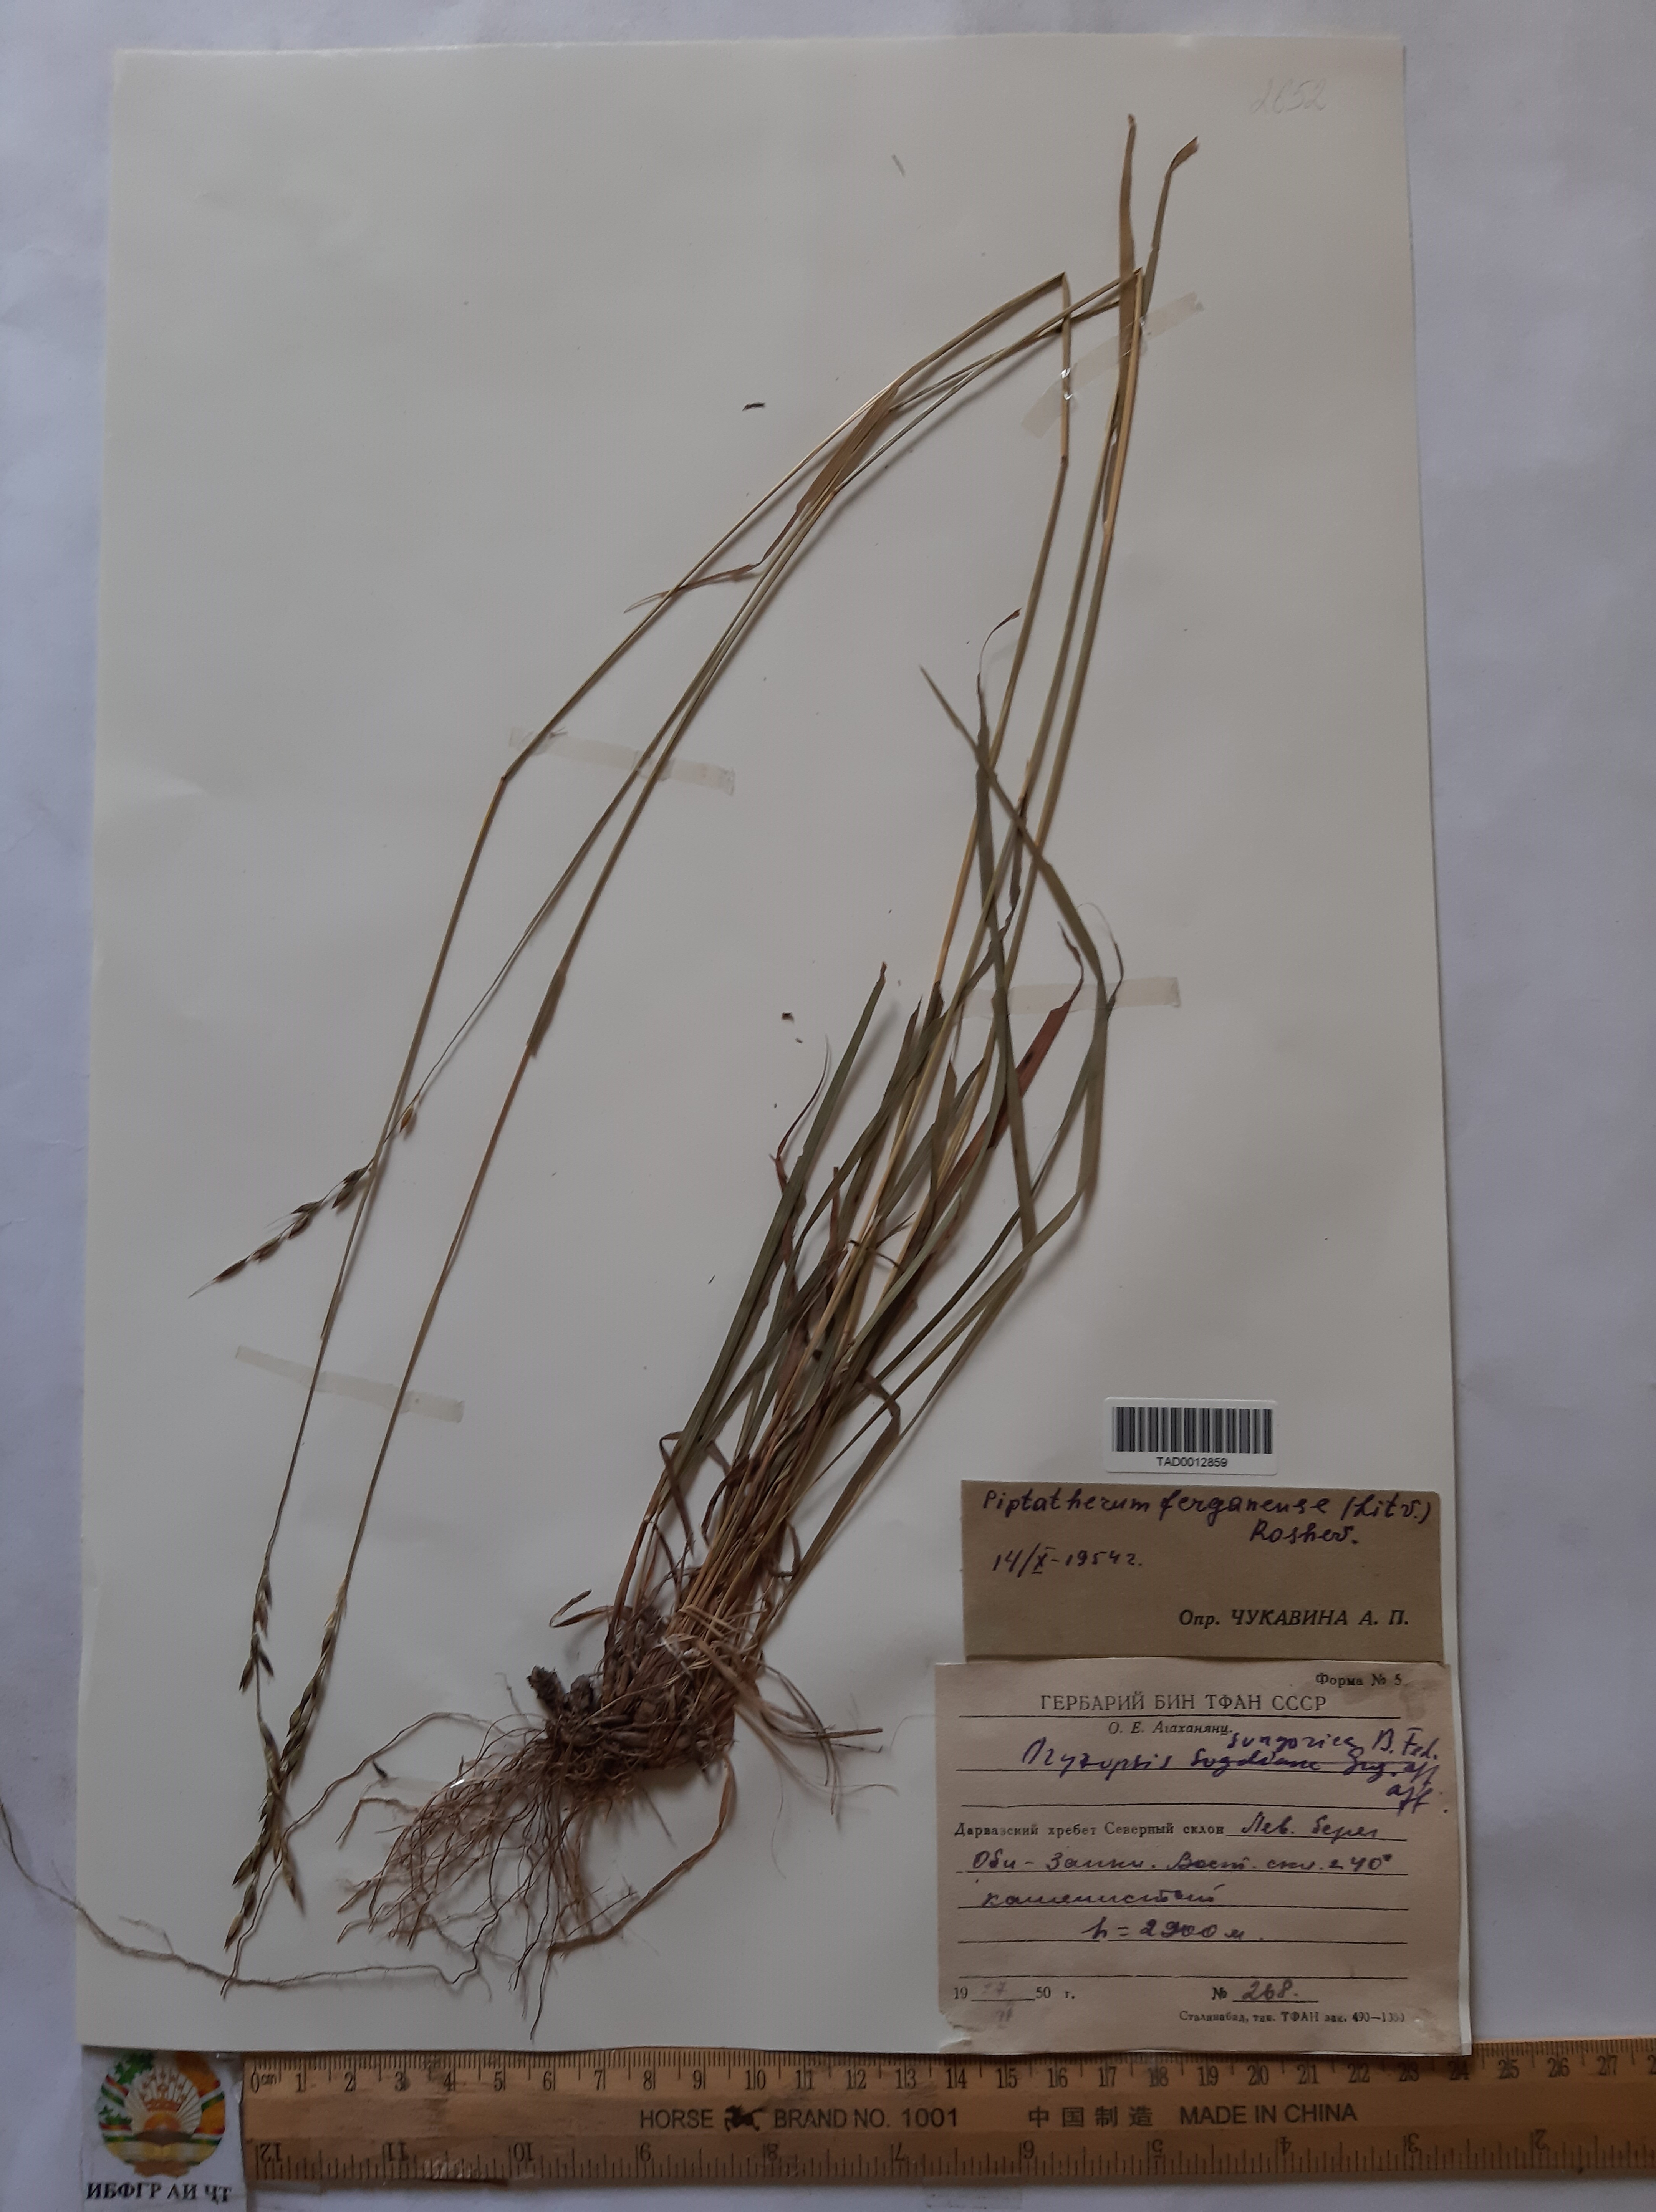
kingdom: Plantae
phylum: Tracheophyta
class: Liliopsida
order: Poales
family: Poaceae
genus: Piptatherum
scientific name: Piptatherum ferganense
